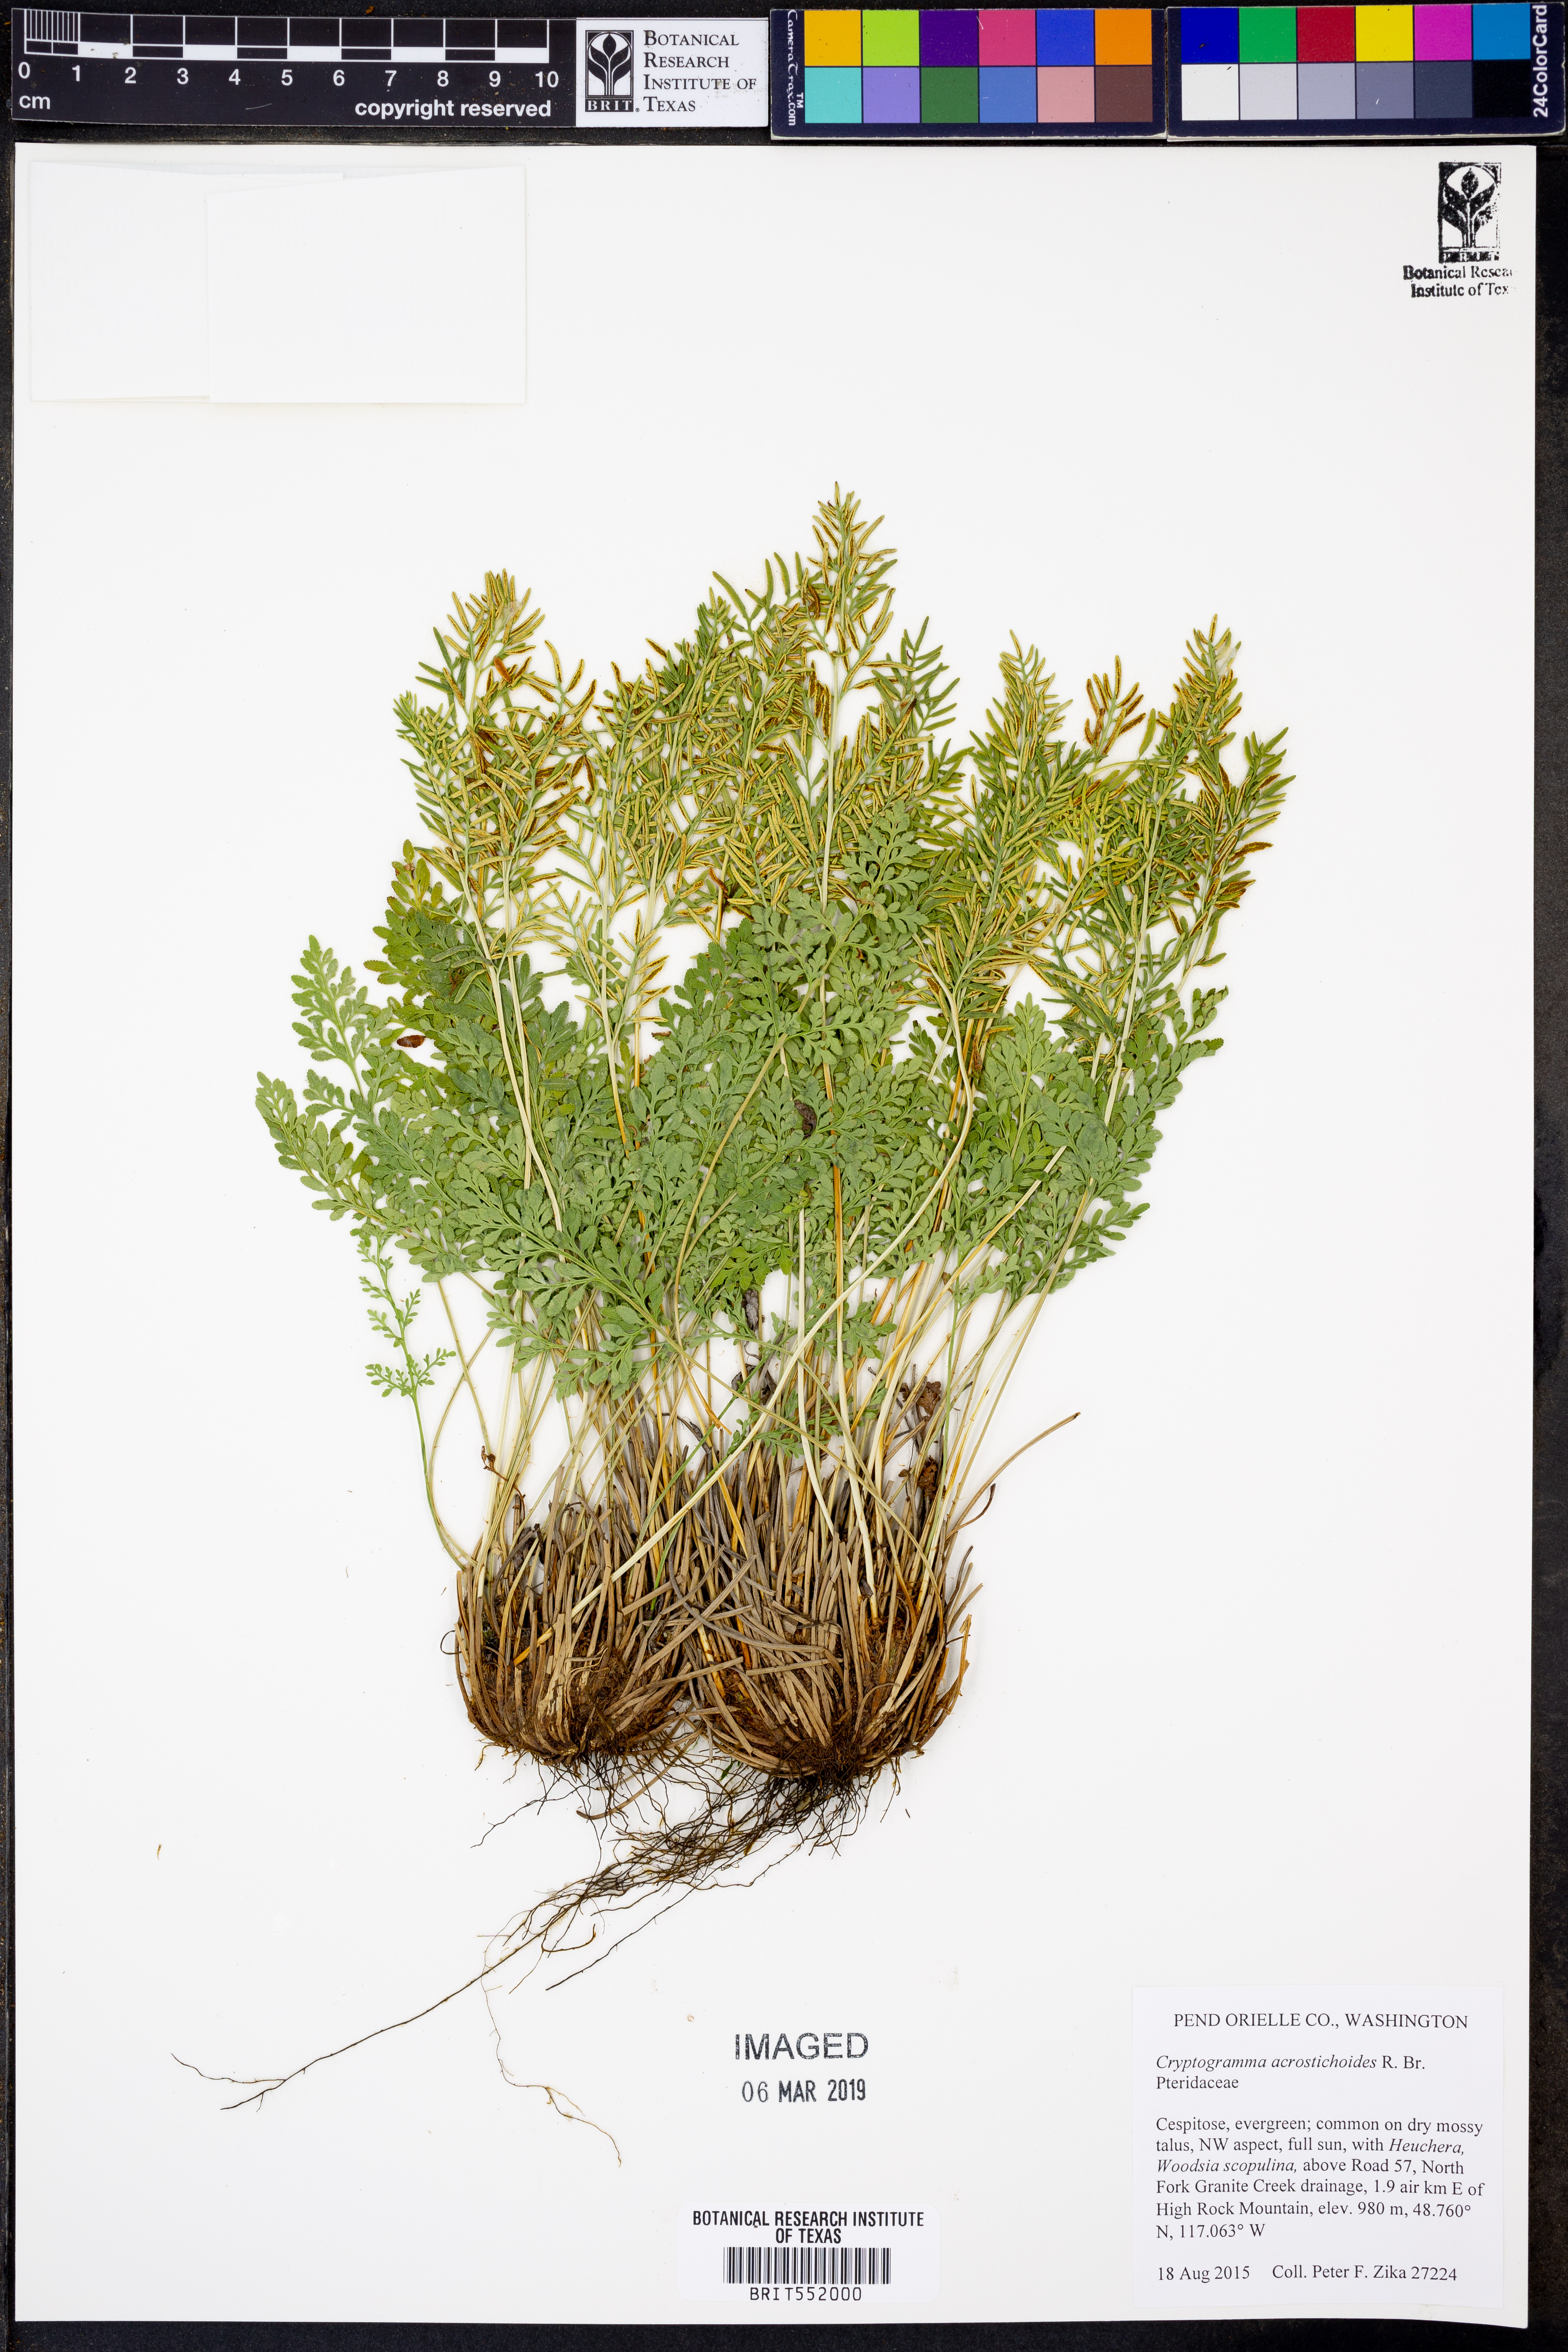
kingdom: Plantae
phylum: Tracheophyta
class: Polypodiopsida
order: Polypodiales
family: Pteridaceae
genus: Cryptogramma
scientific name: Cryptogramma acrostichoides
